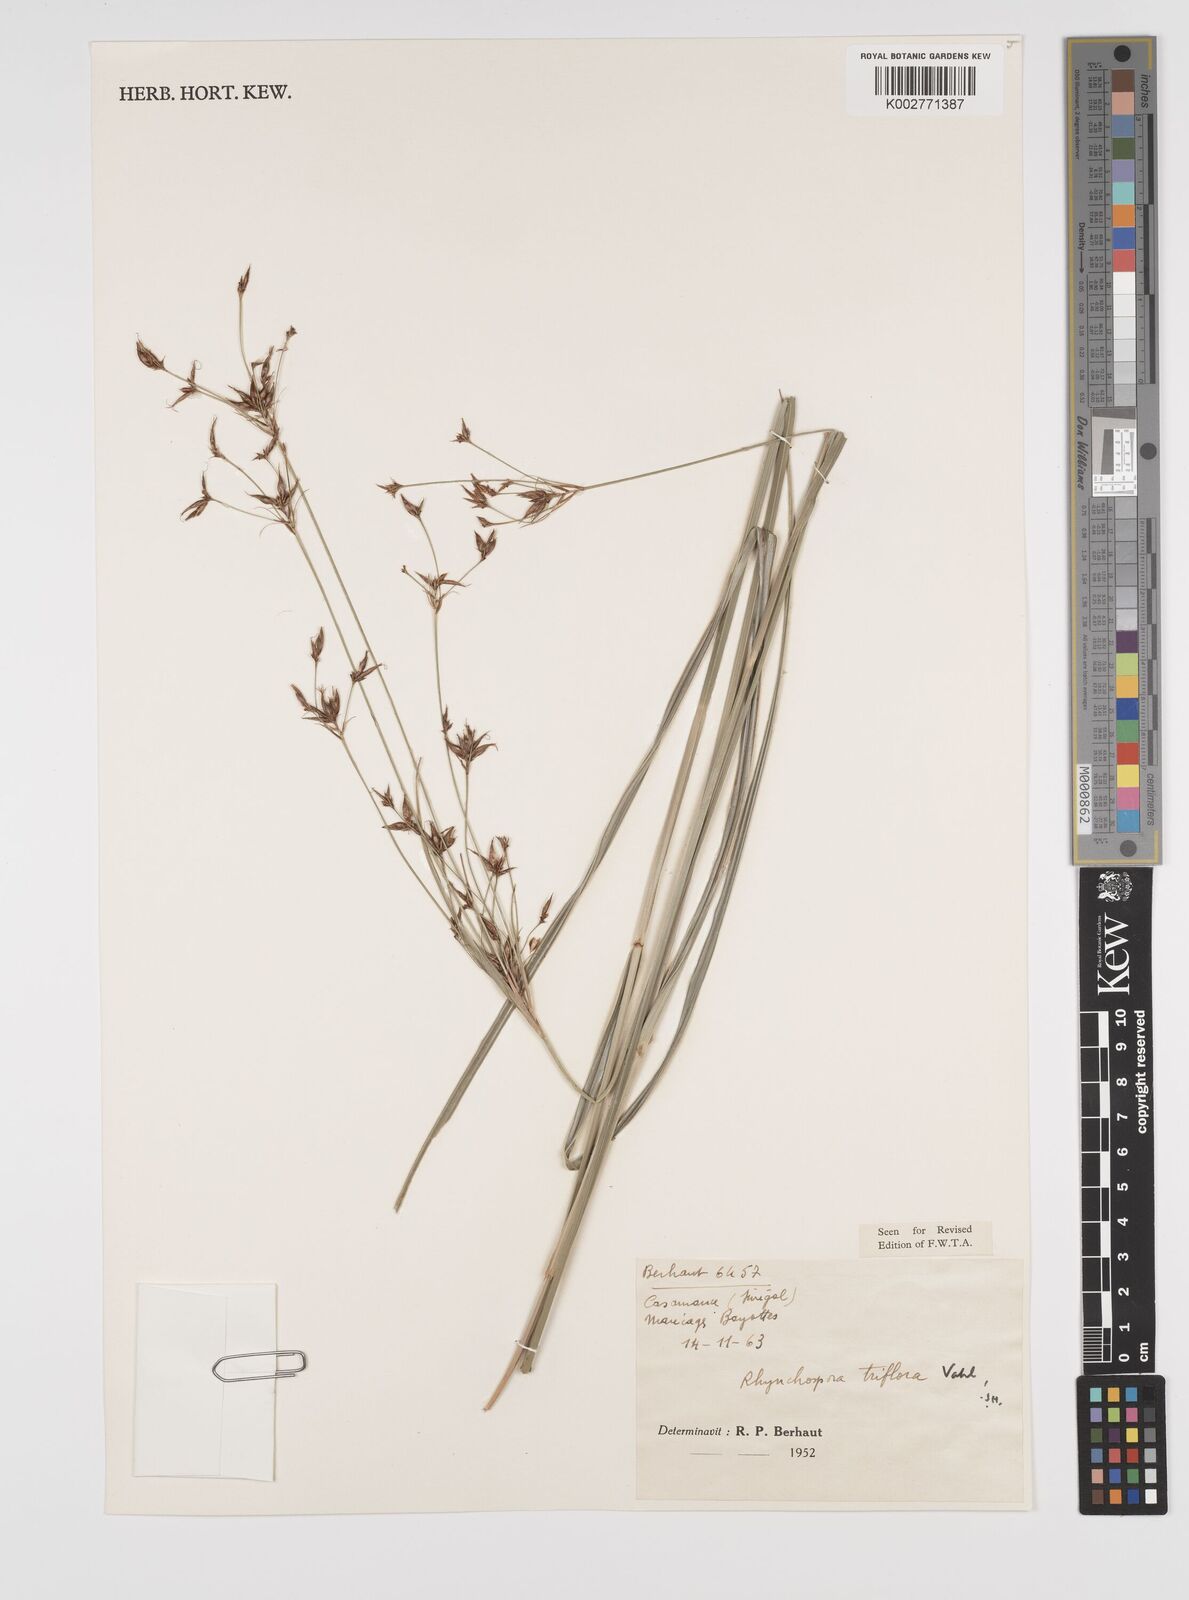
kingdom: Plantae
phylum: Tracheophyta
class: Liliopsida
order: Poales
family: Cyperaceae
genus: Rhynchospora
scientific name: Rhynchospora triflora
